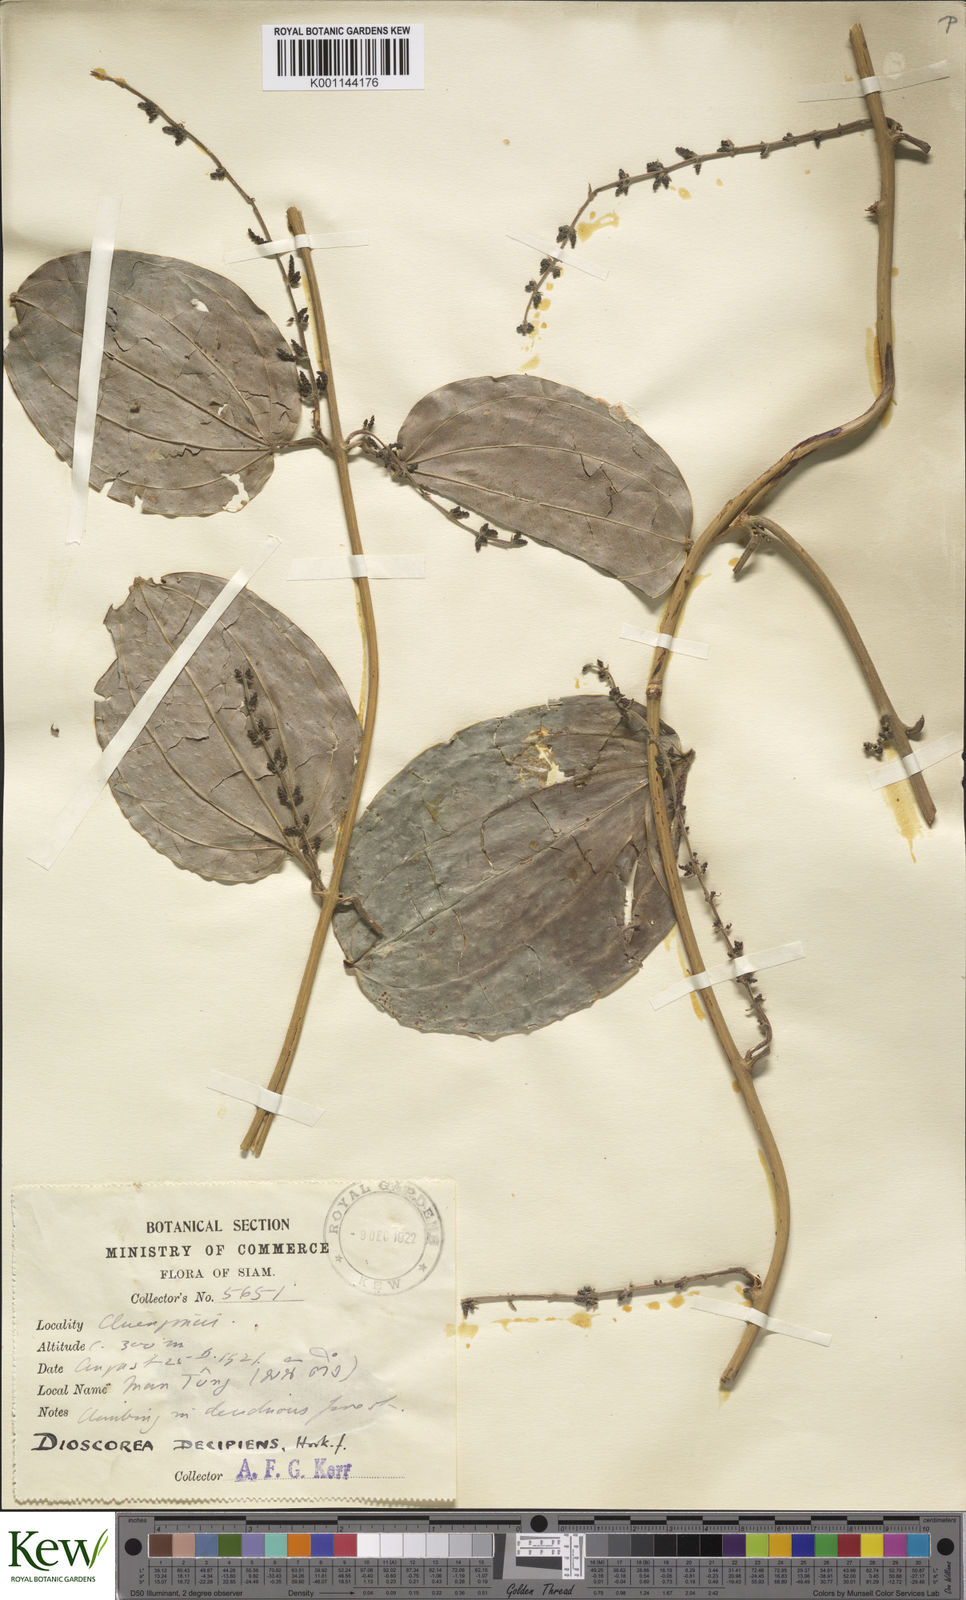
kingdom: Plantae
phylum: Tracheophyta
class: Liliopsida
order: Dioscoreales
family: Dioscoreaceae
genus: Dioscorea
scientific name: Dioscorea decipiens
